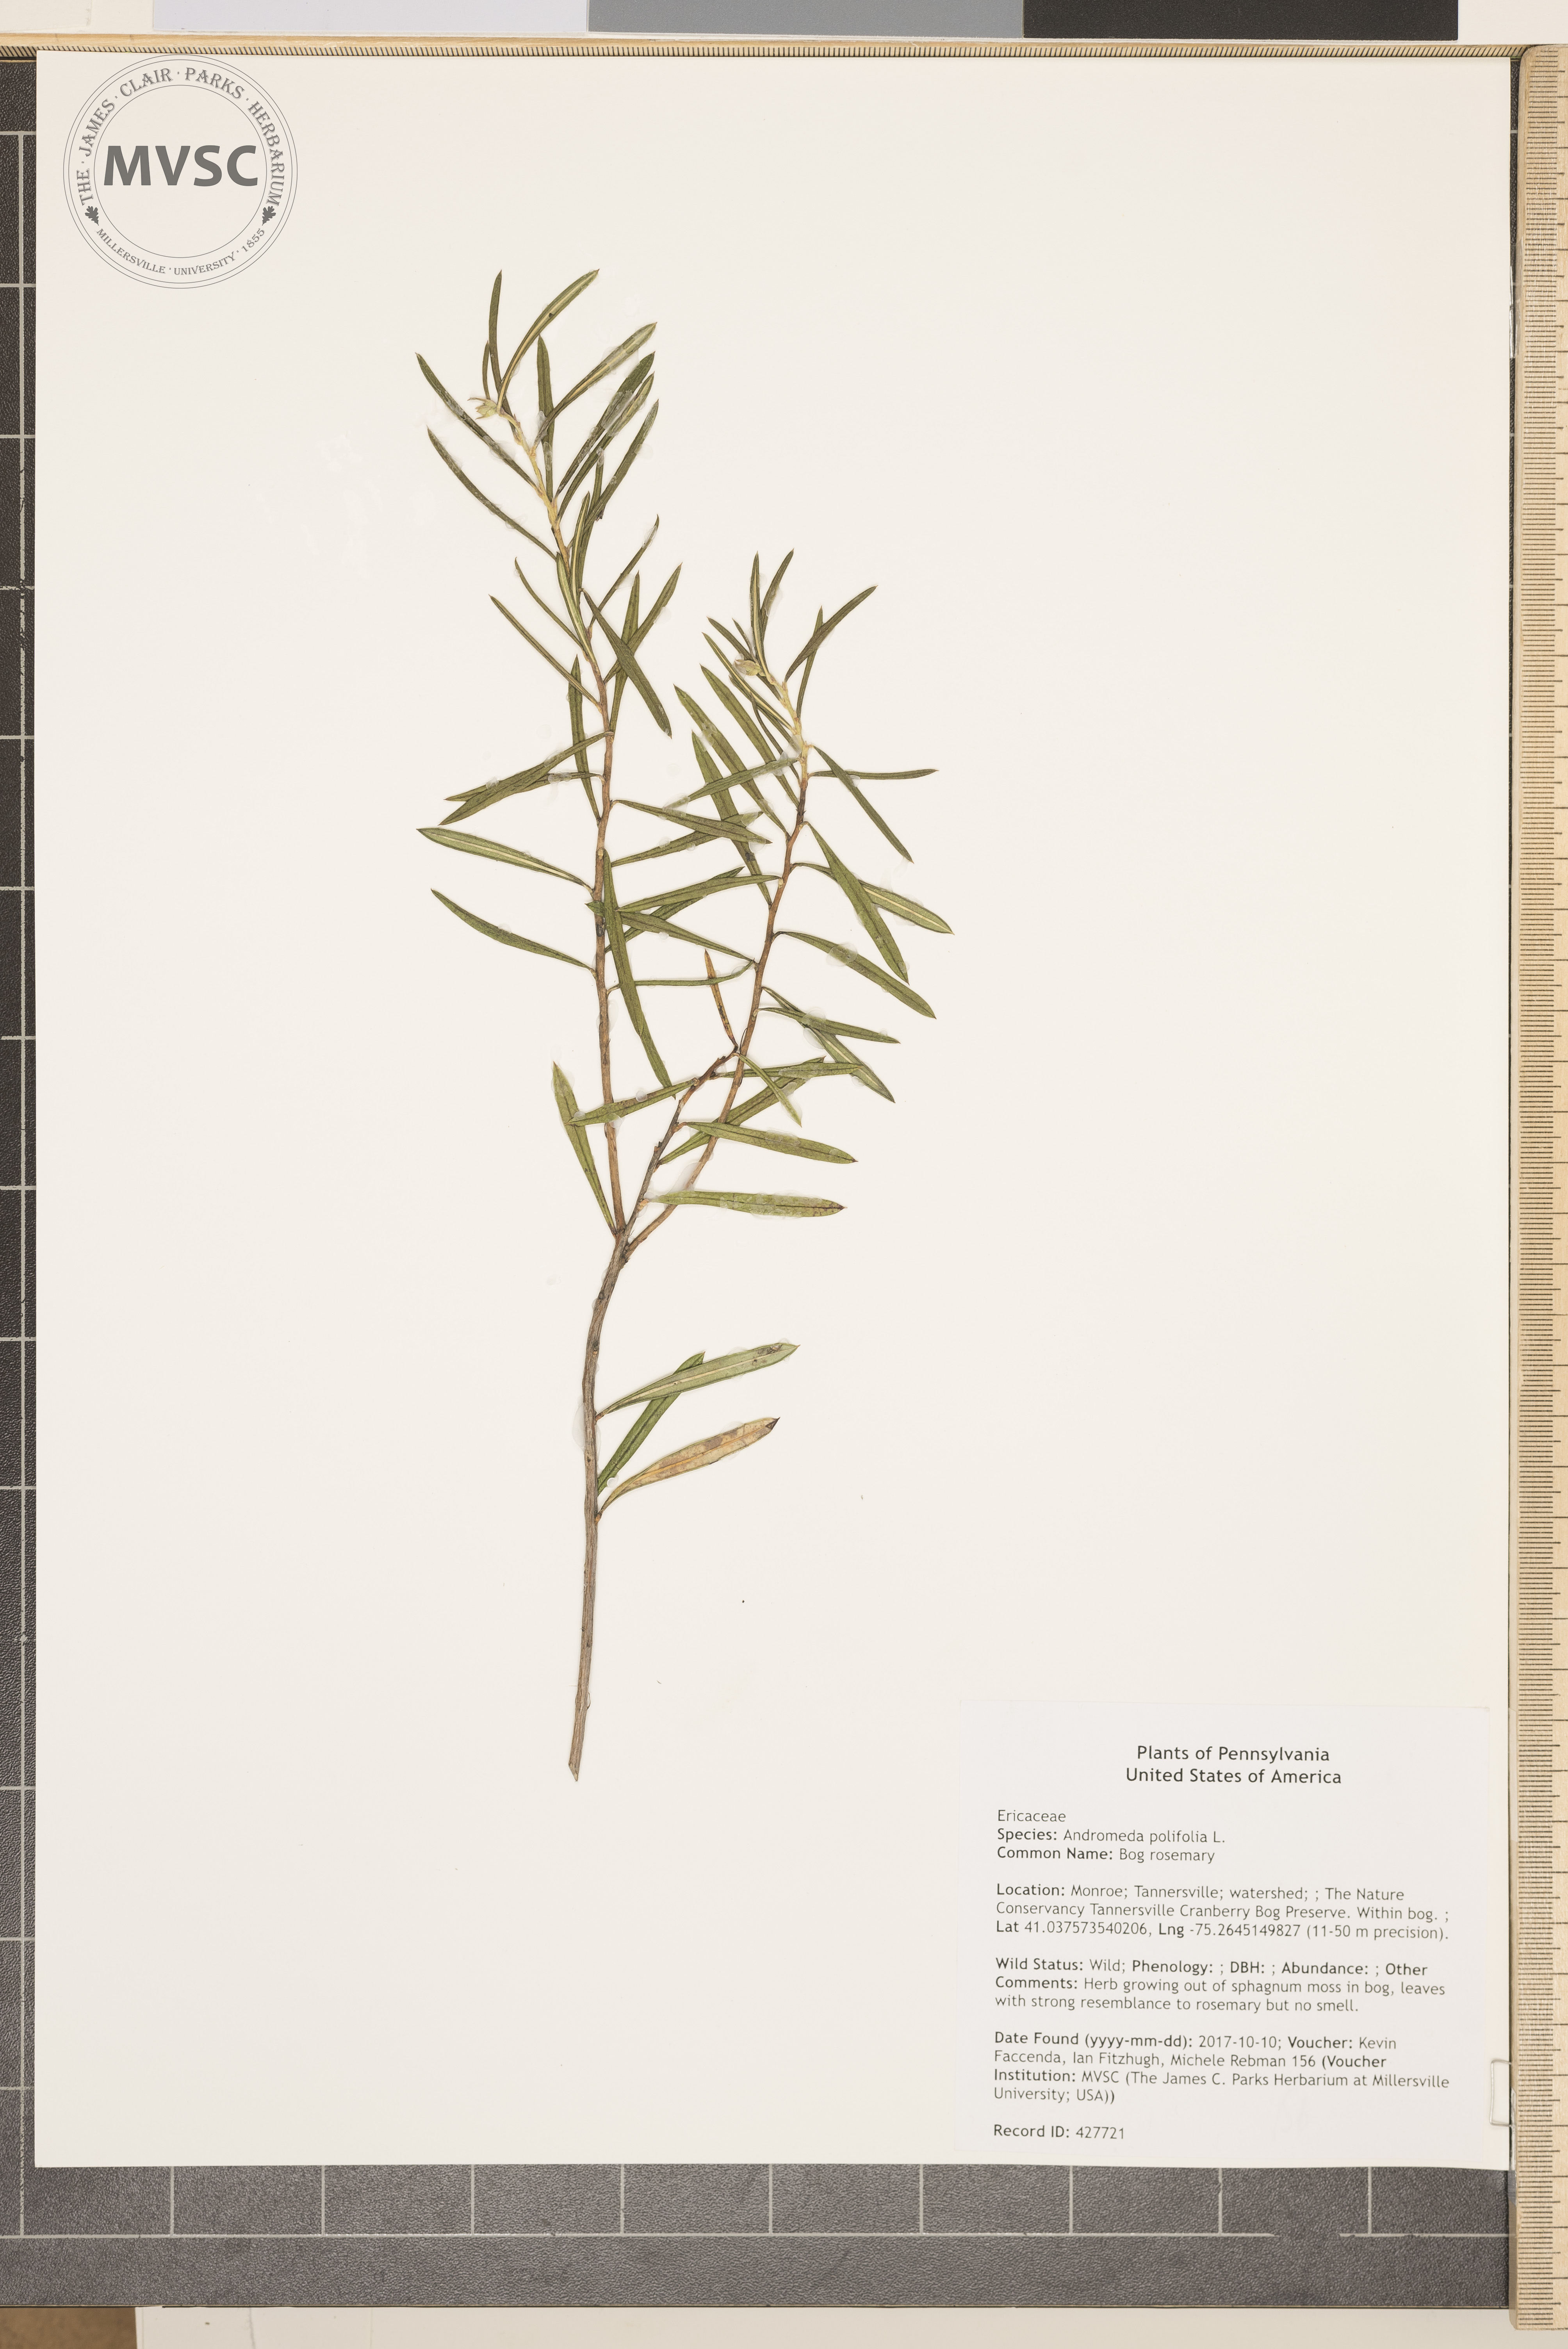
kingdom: Plantae
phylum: Tracheophyta
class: Magnoliopsida
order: Ericales
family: Ericaceae
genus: Andromeda
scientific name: Andromeda polifolia
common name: Bog rosemary
